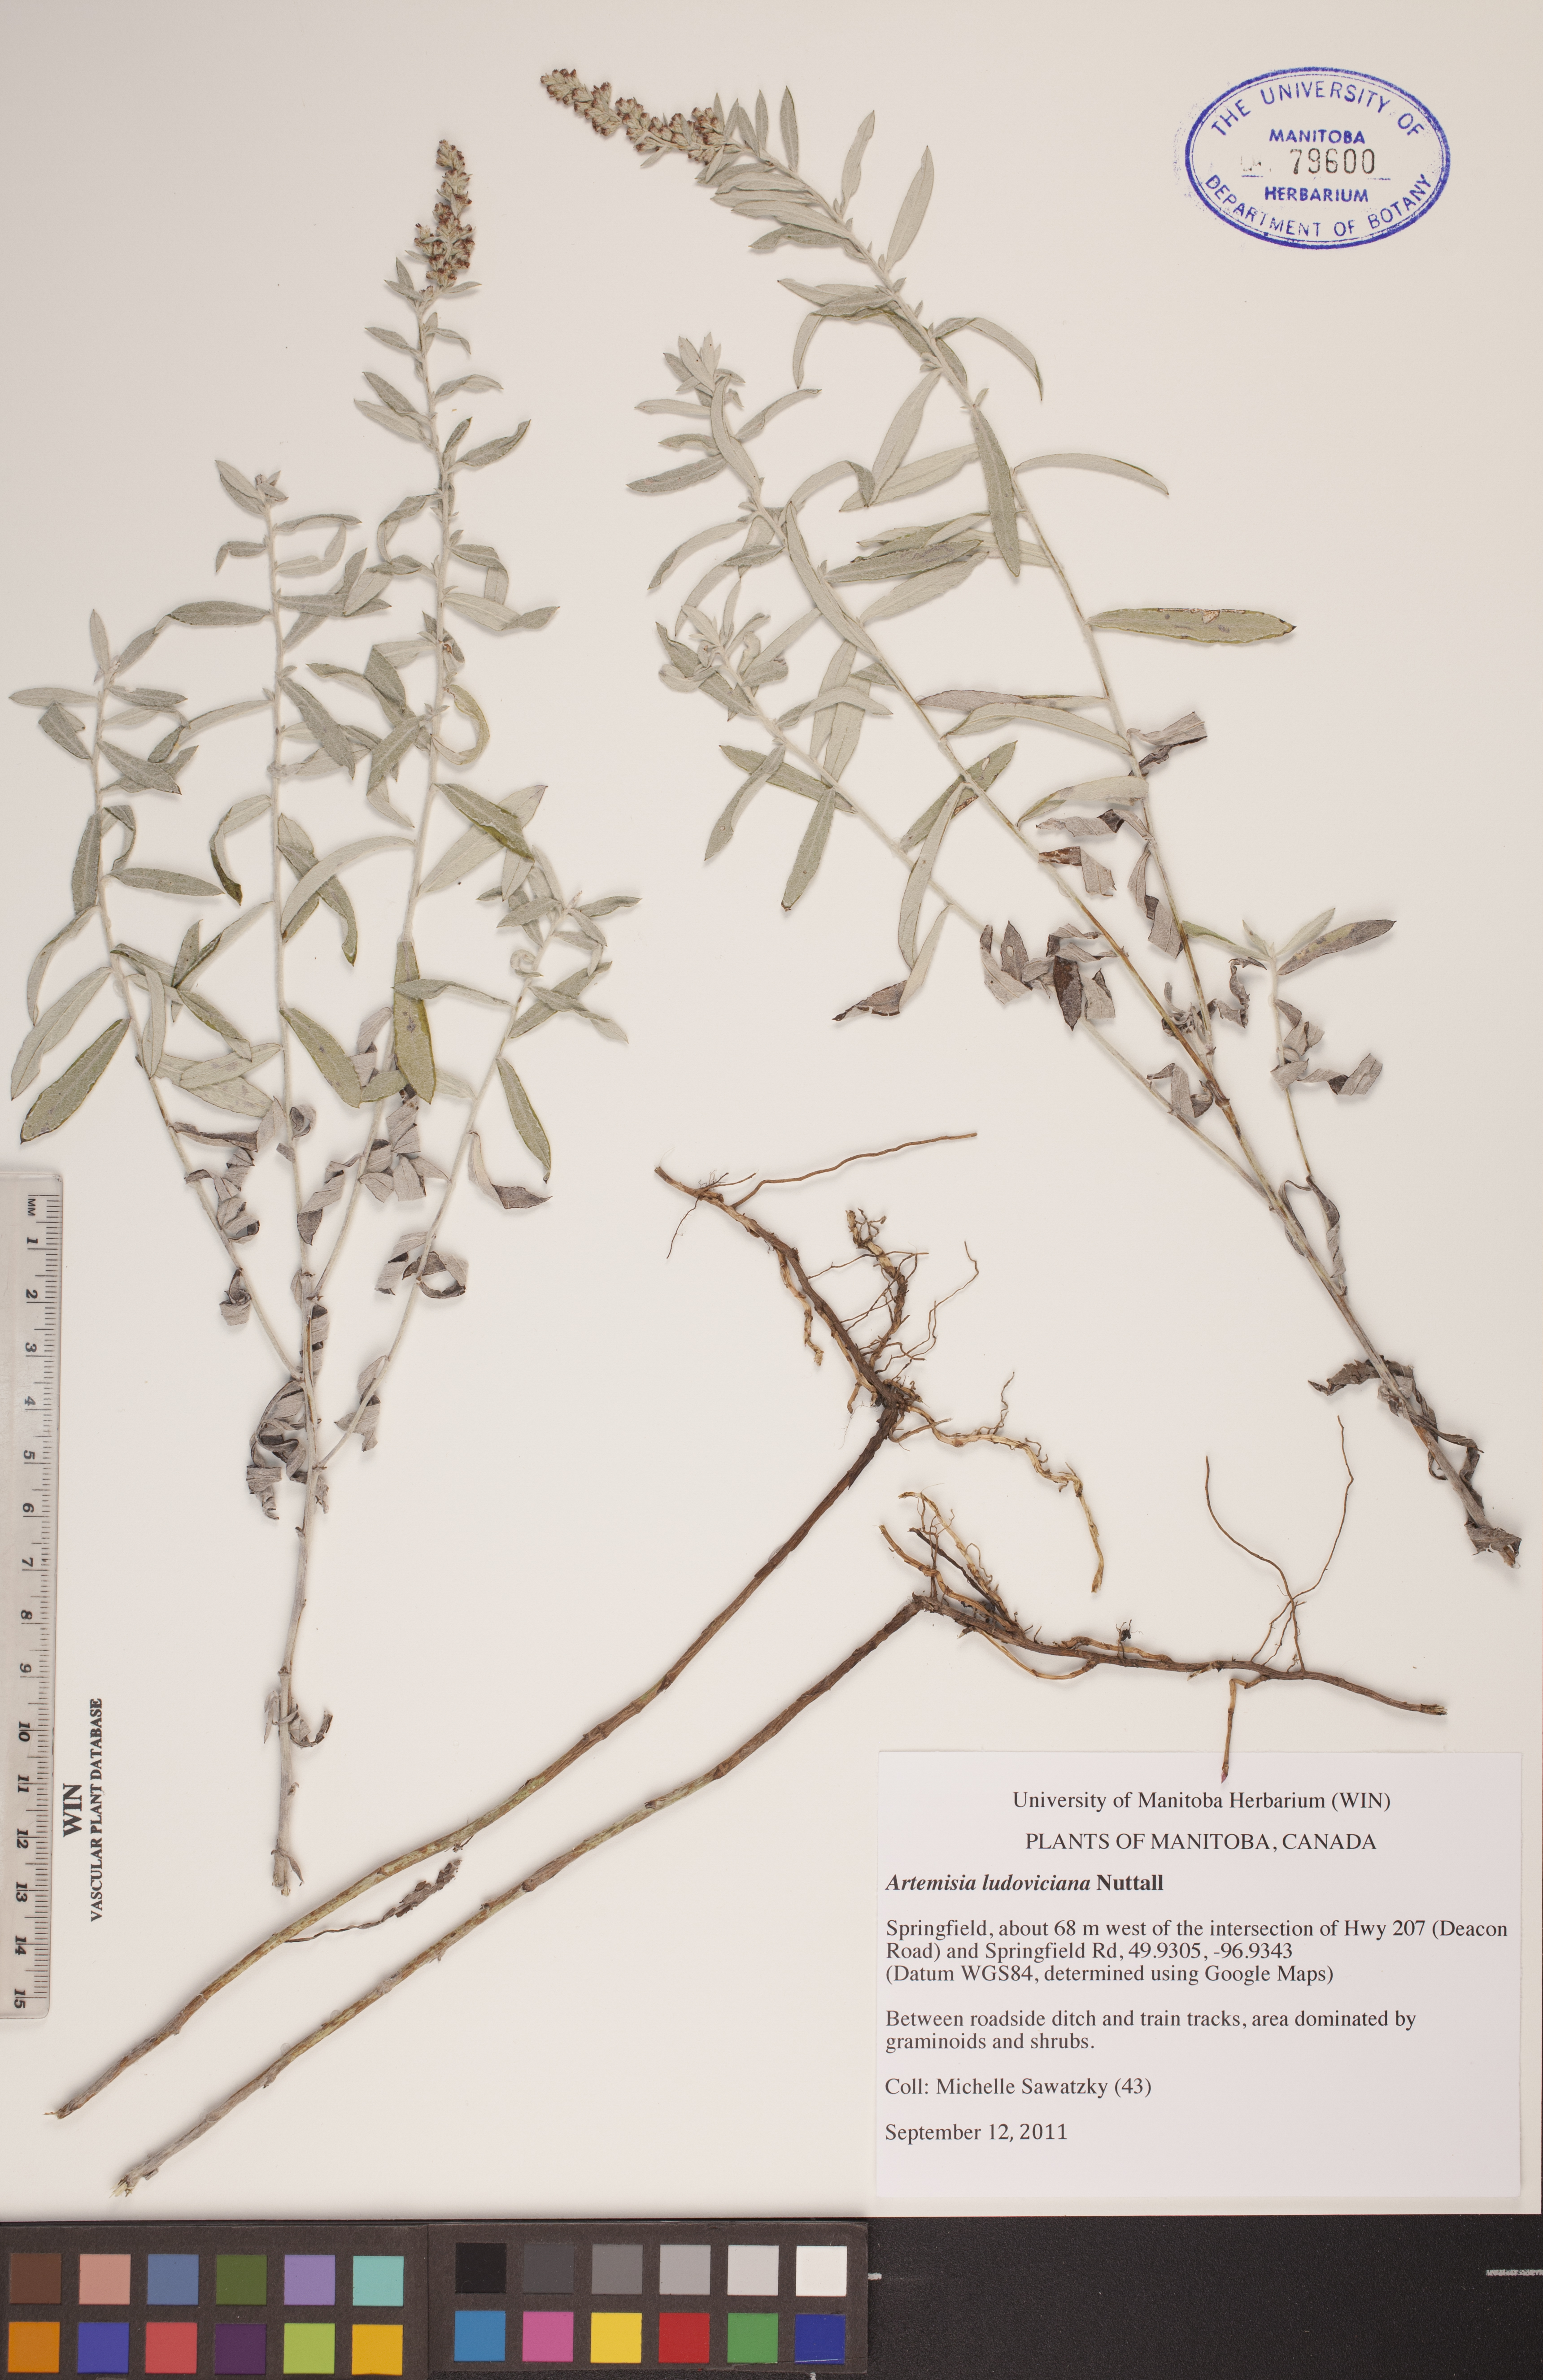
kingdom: Plantae
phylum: Tracheophyta
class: Magnoliopsida
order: Asterales
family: Asteraceae
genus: Artemisia
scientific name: Artemisia ludoviciana
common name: Western mugwort
